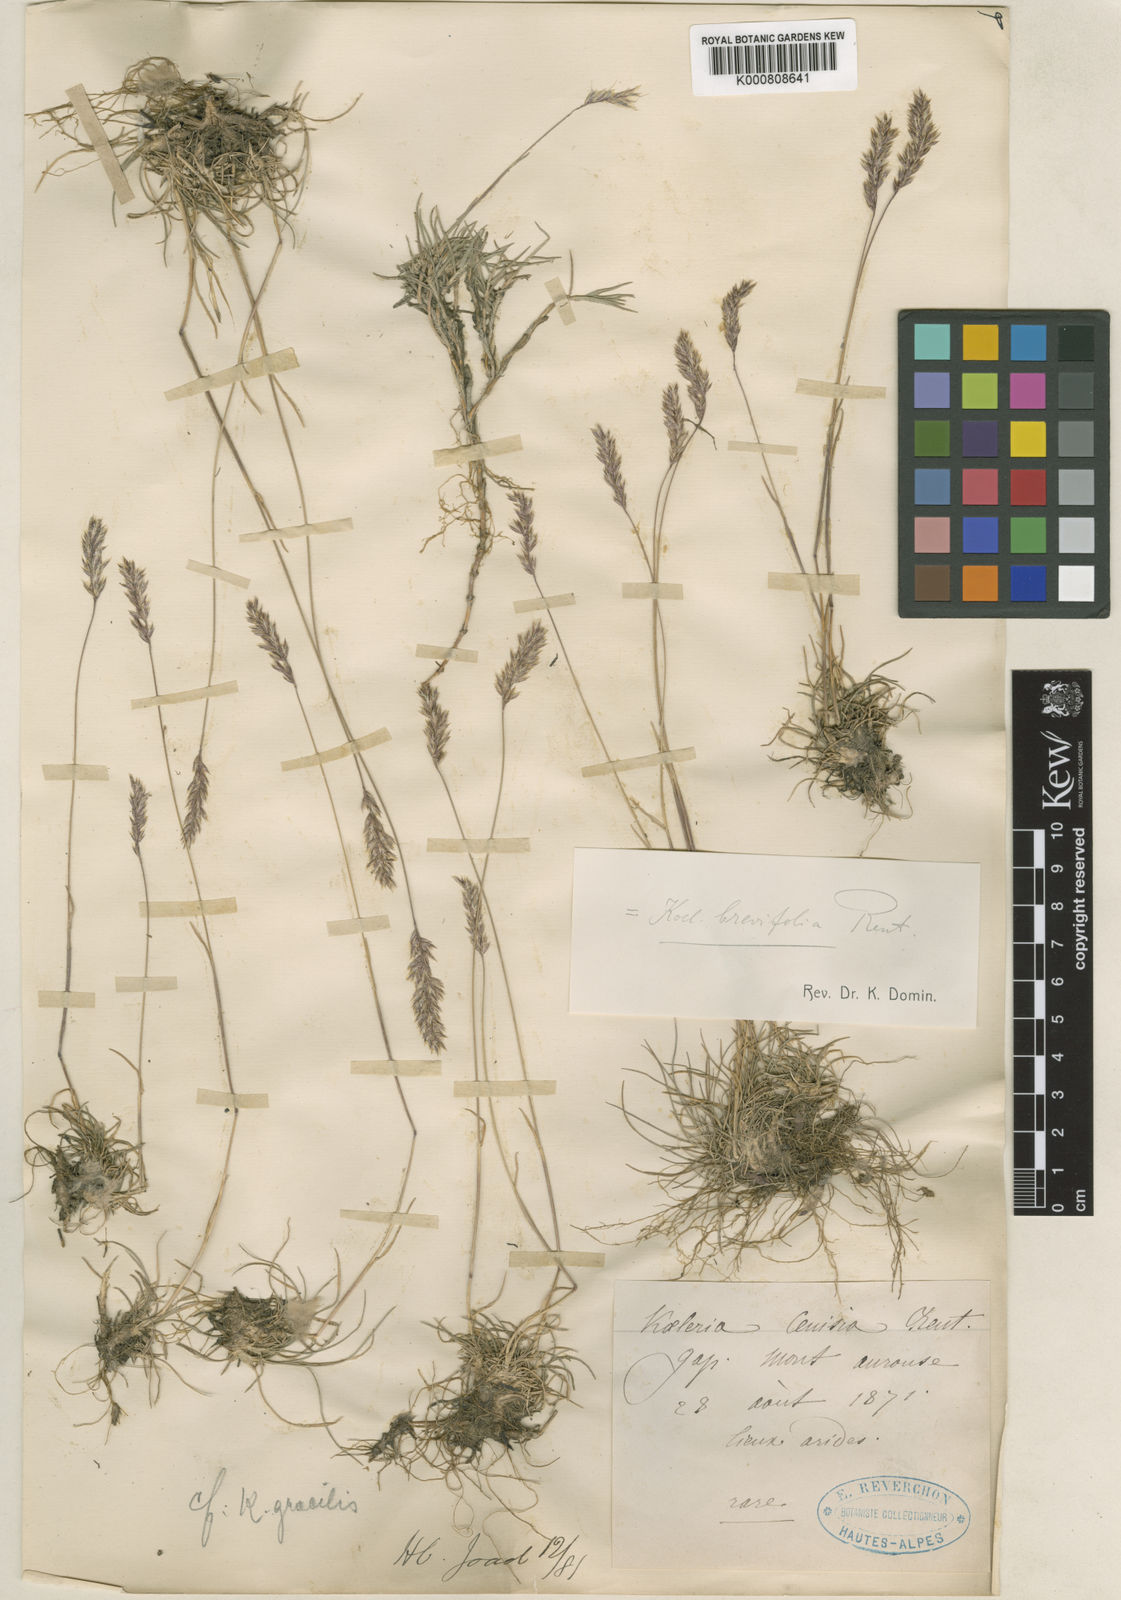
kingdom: Plantae
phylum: Tracheophyta
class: Liliopsida
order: Poales
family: Poaceae
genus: Koeleria
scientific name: Koeleria
